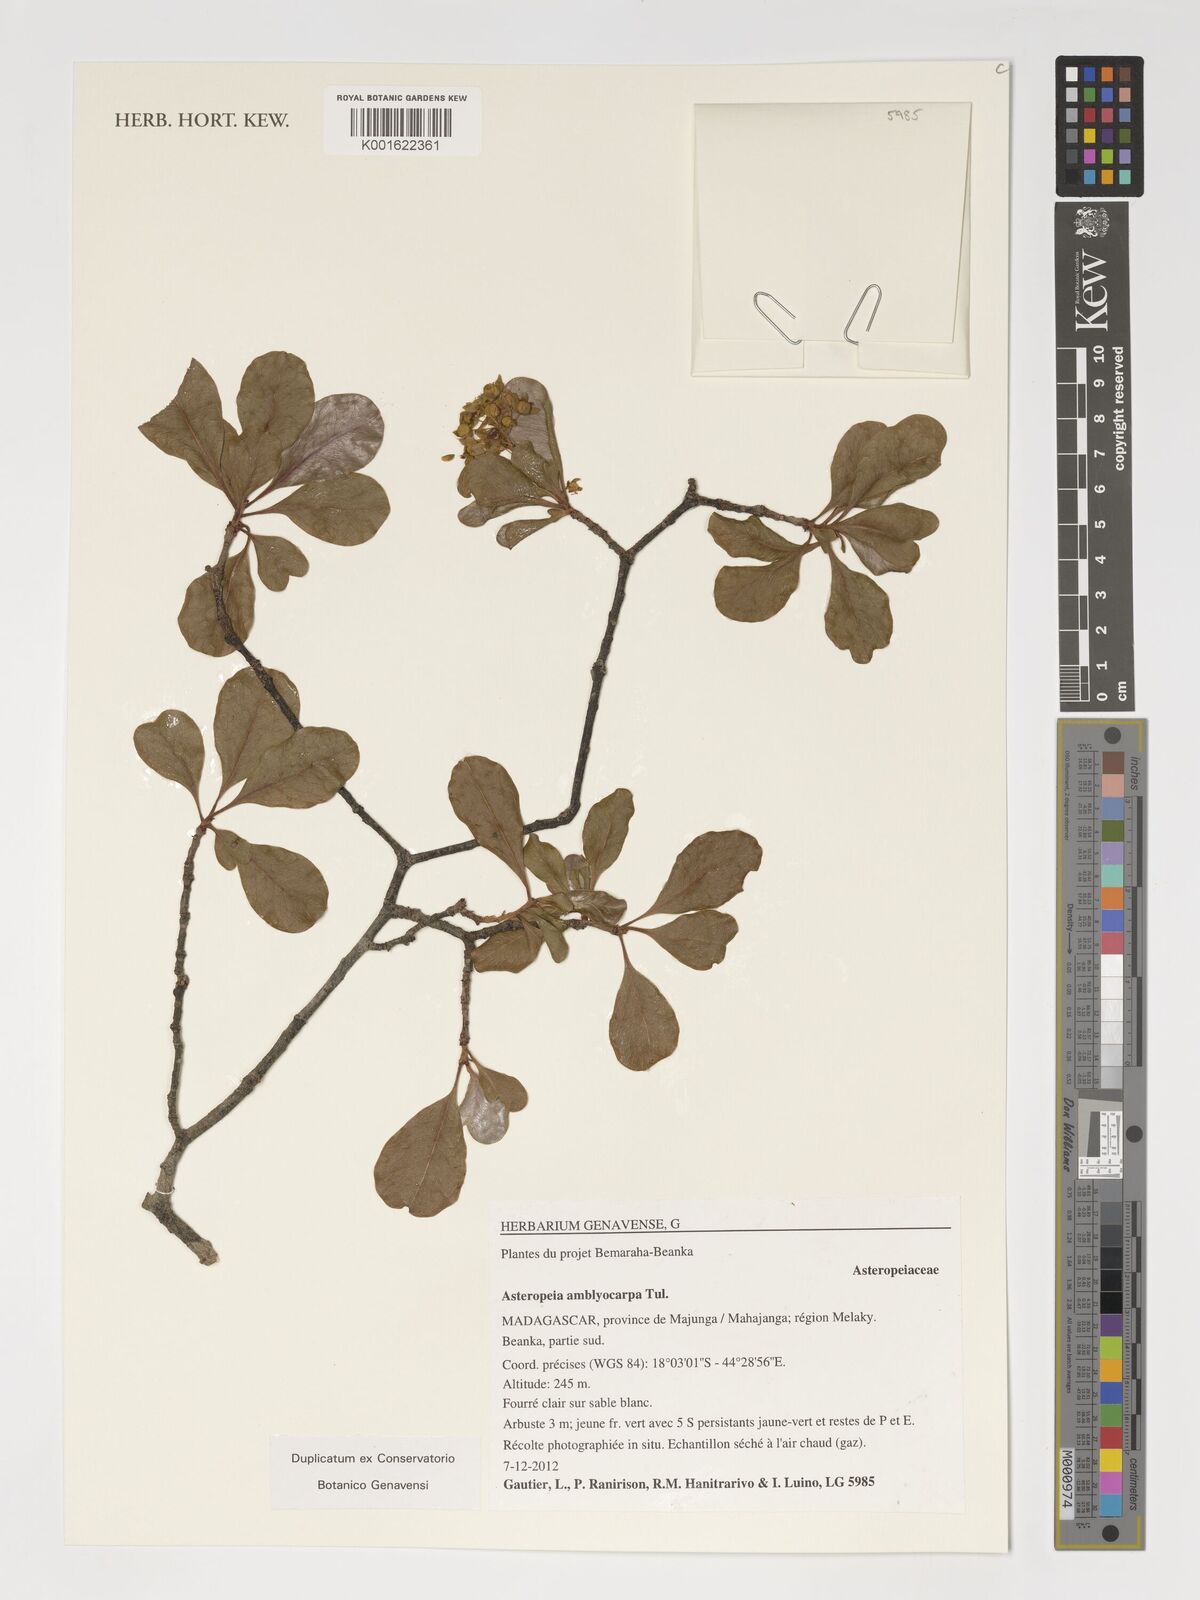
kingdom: Plantae
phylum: Tracheophyta
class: Magnoliopsida
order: Caryophyllales
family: Asteropeiaceae
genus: Asteropeia
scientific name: Asteropeia amblyocarpa
